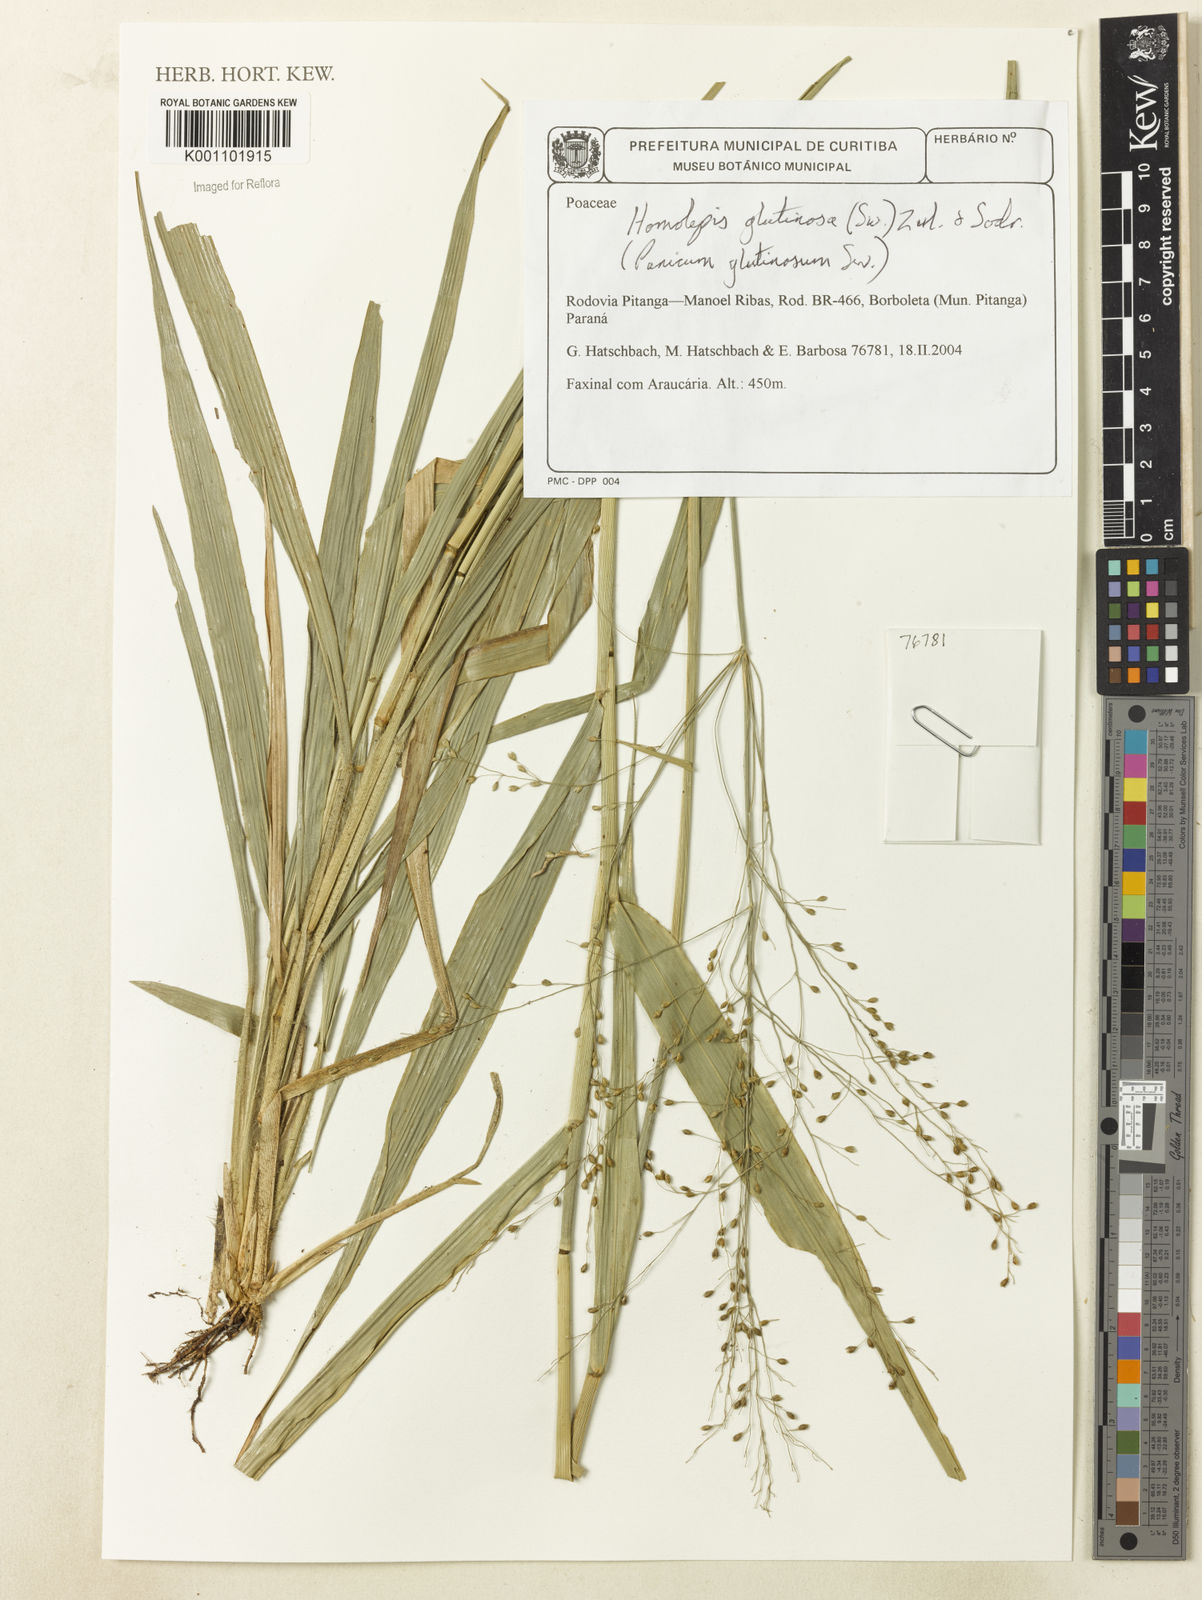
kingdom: Plantae
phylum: Tracheophyta
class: Liliopsida
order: Poales
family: Poaceae
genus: Homolepis
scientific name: Homolepis glutinosa
